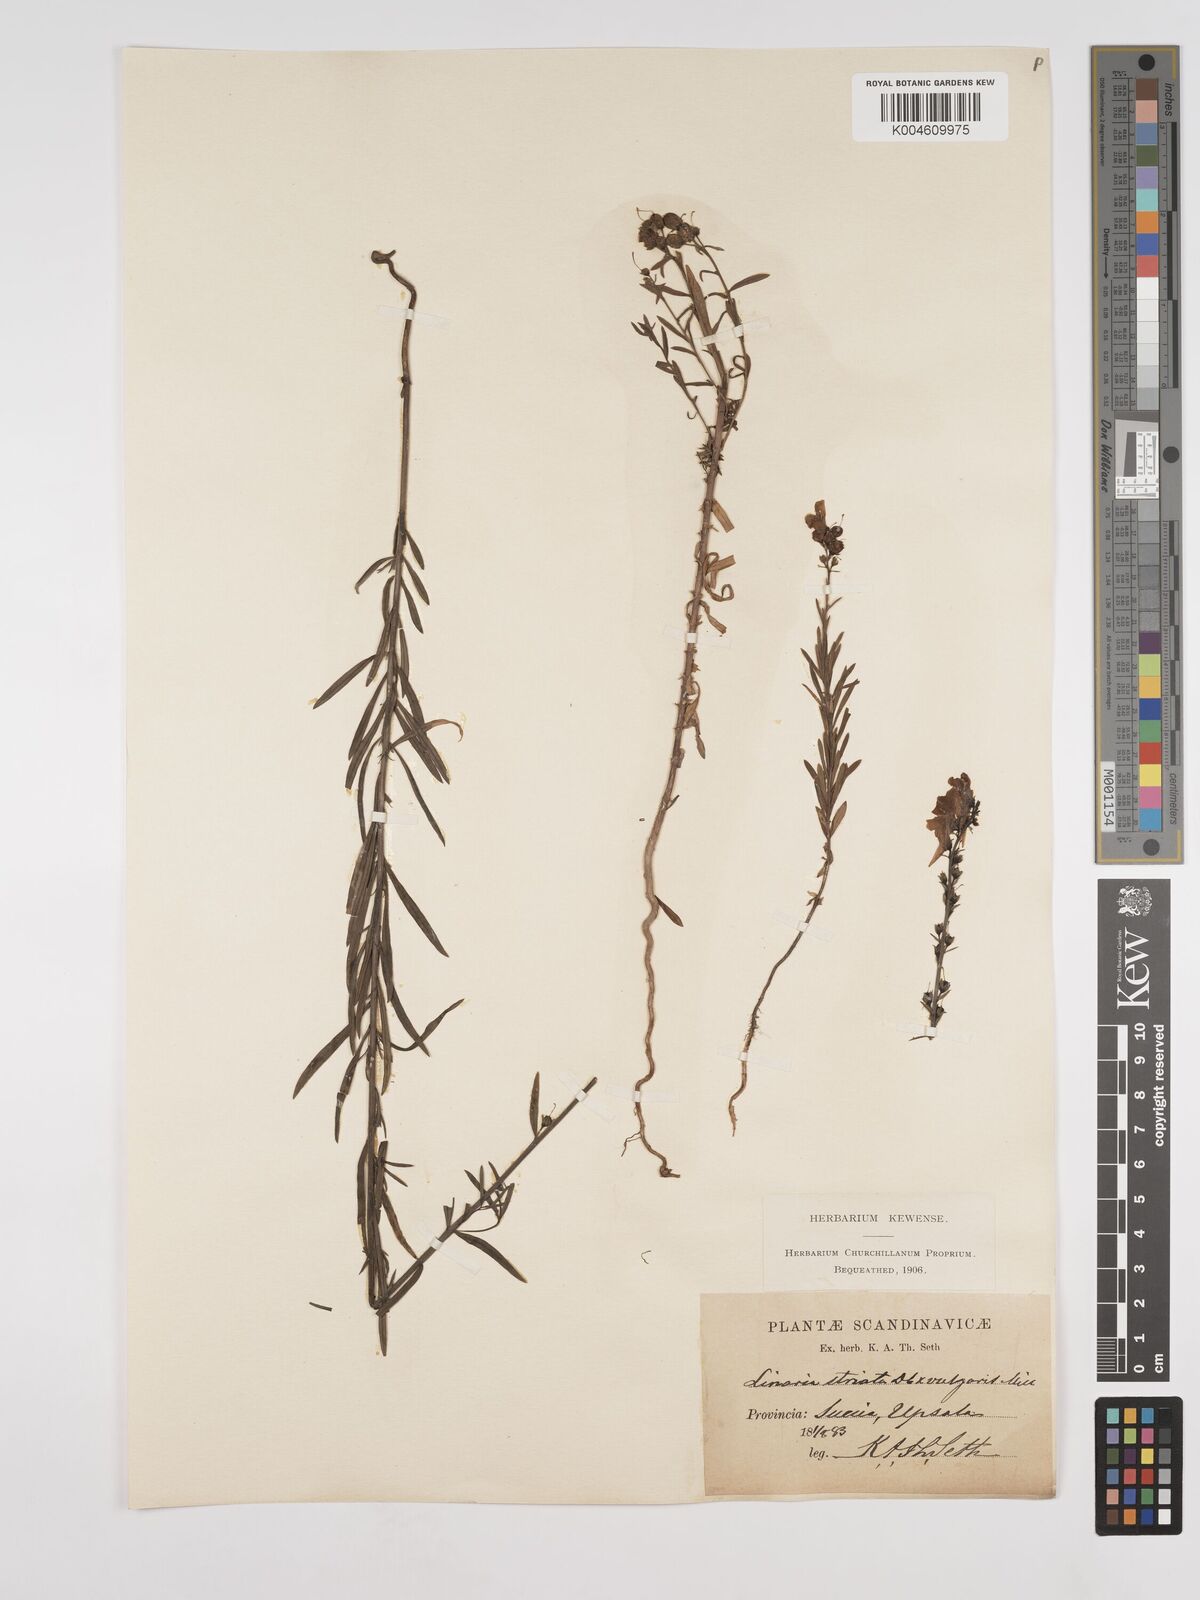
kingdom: Plantae
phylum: Tracheophyta
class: Magnoliopsida
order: Lamiales
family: Plantaginaceae
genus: Linaria
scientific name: Linaria
